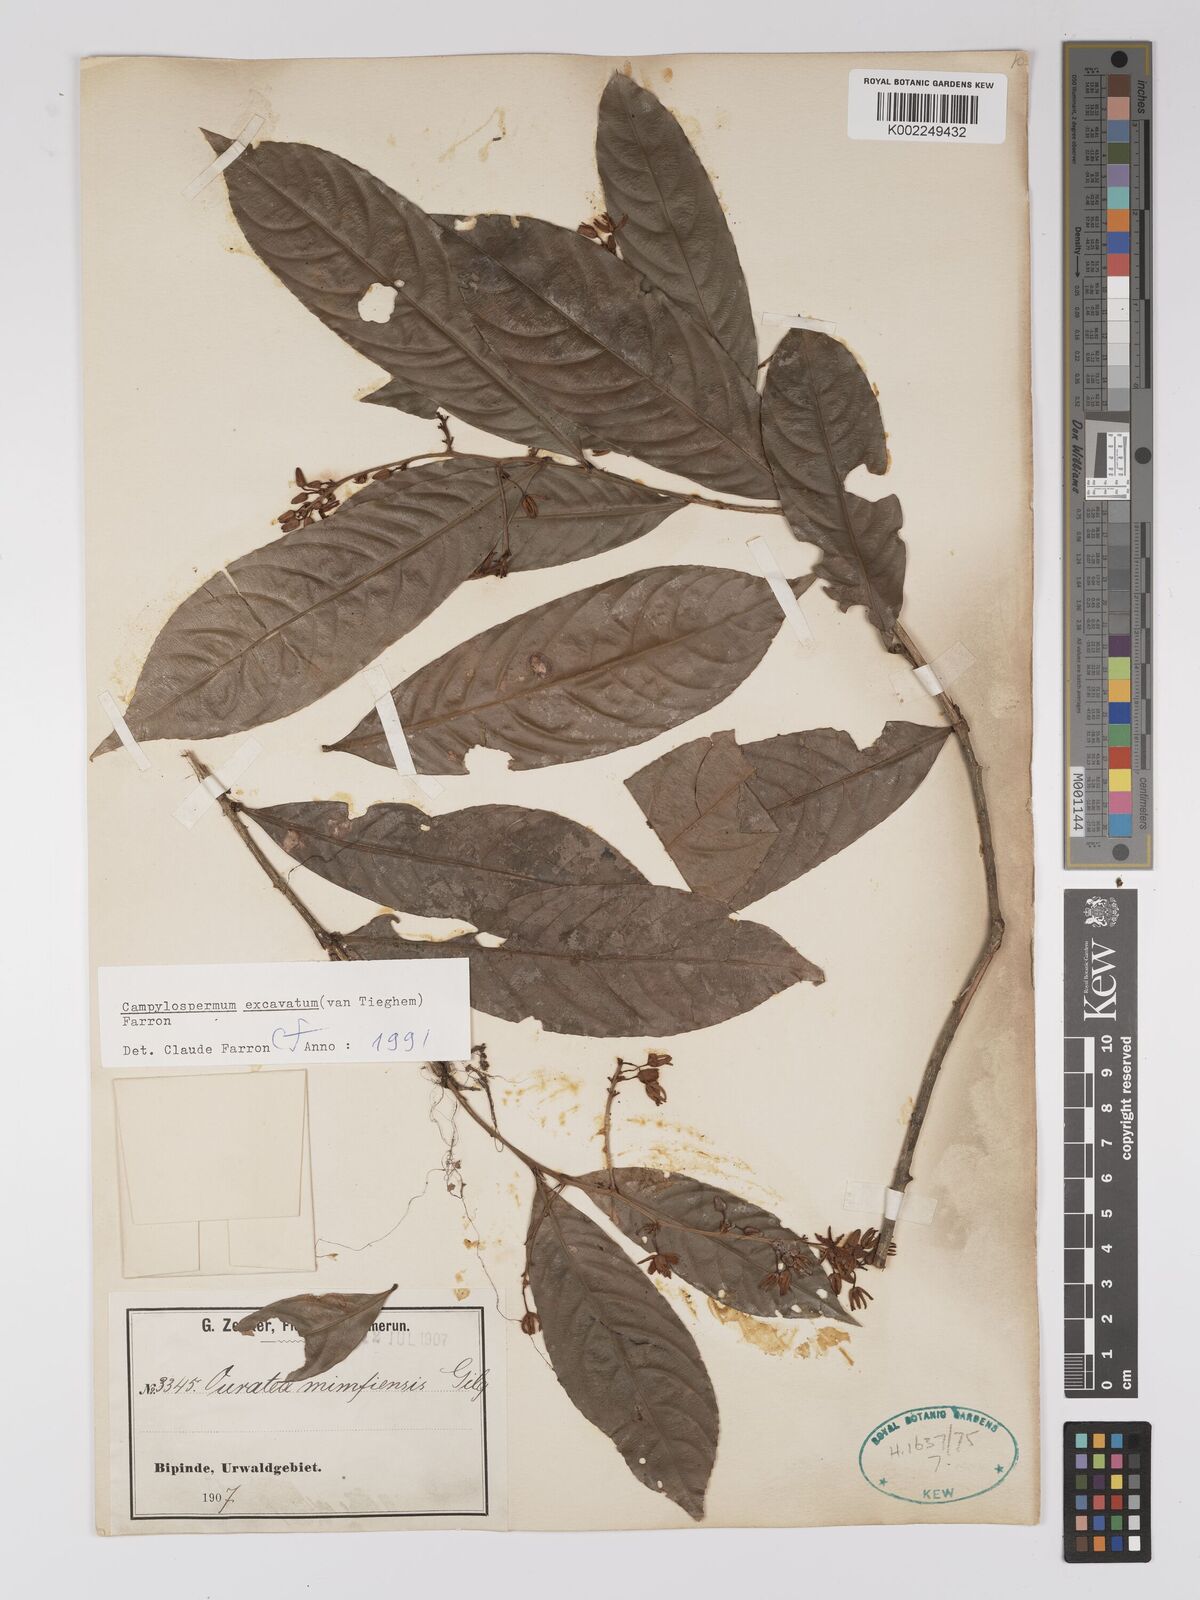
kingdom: Plantae
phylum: Tracheophyta
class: Magnoliopsida
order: Malpighiales
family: Ochnaceae
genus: Campylospermum
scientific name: Campylospermum excavatum
